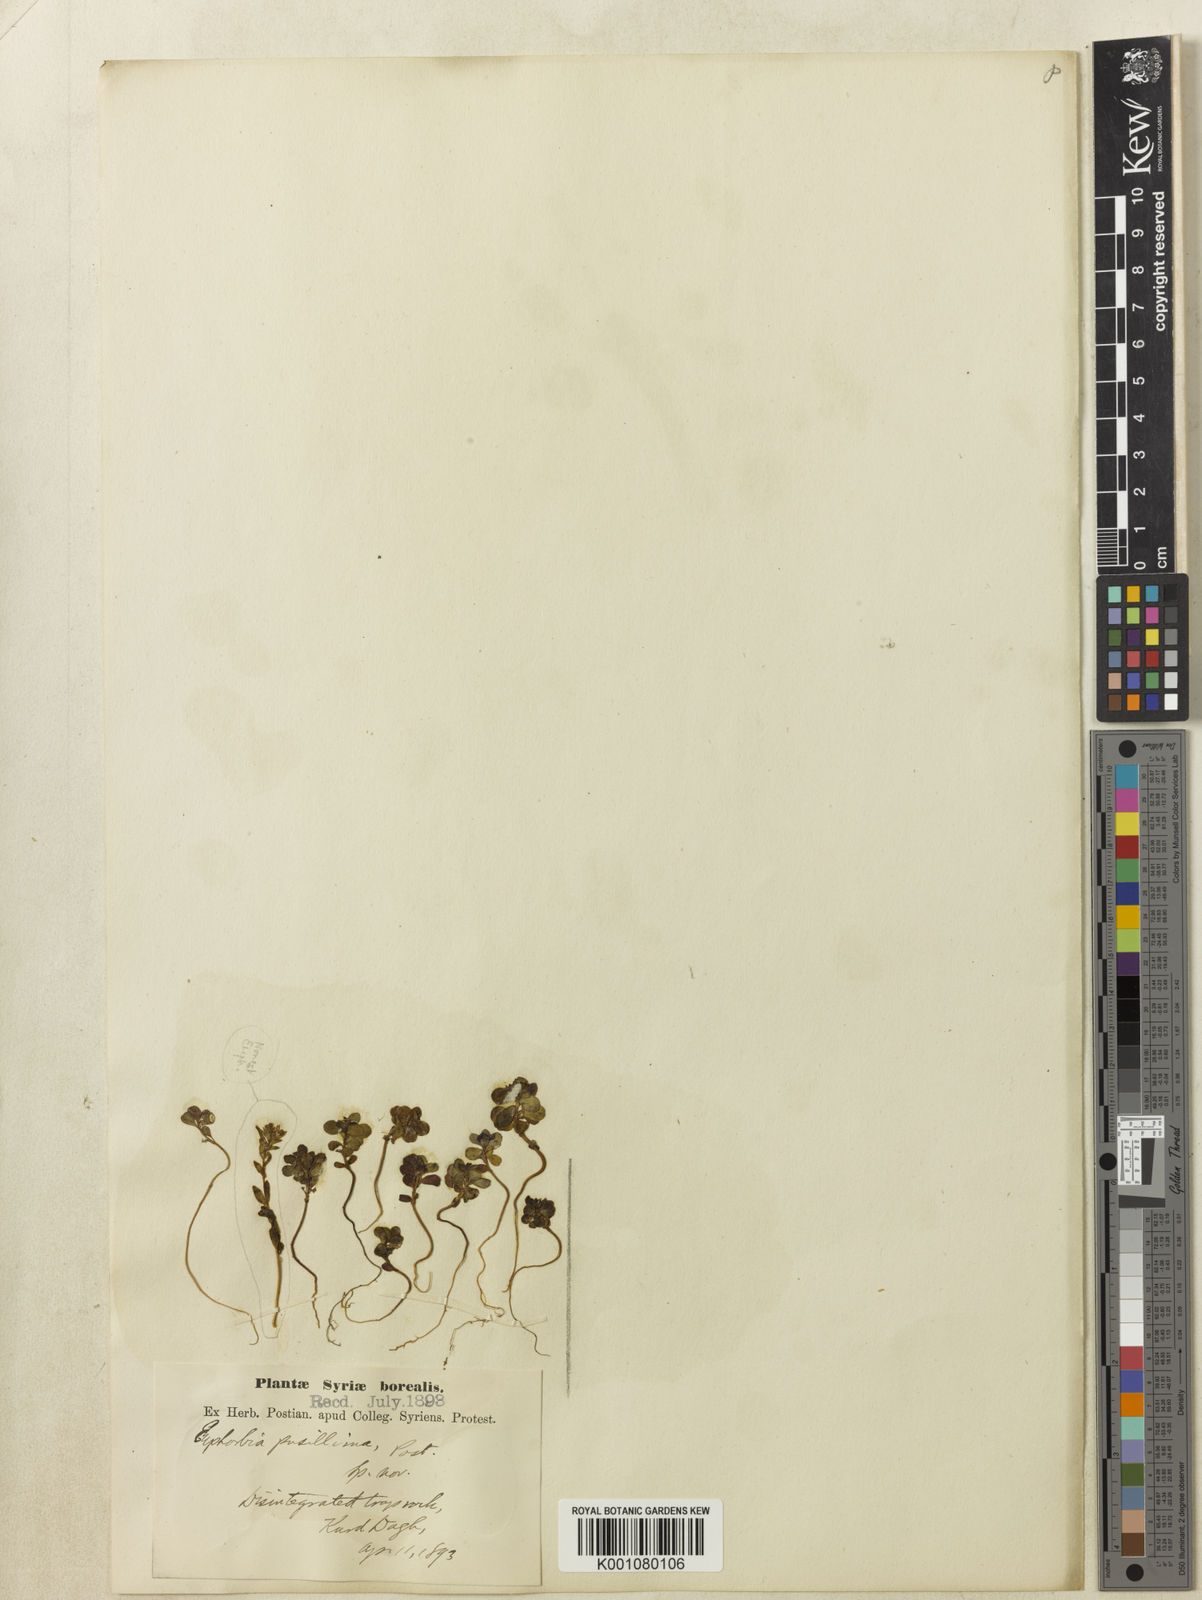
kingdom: Plantae
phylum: Tracheophyta
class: Magnoliopsida
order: Malpighiales
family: Euphorbiaceae
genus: Euphorbia
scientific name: Euphorbia peplus
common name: Petty spurge
